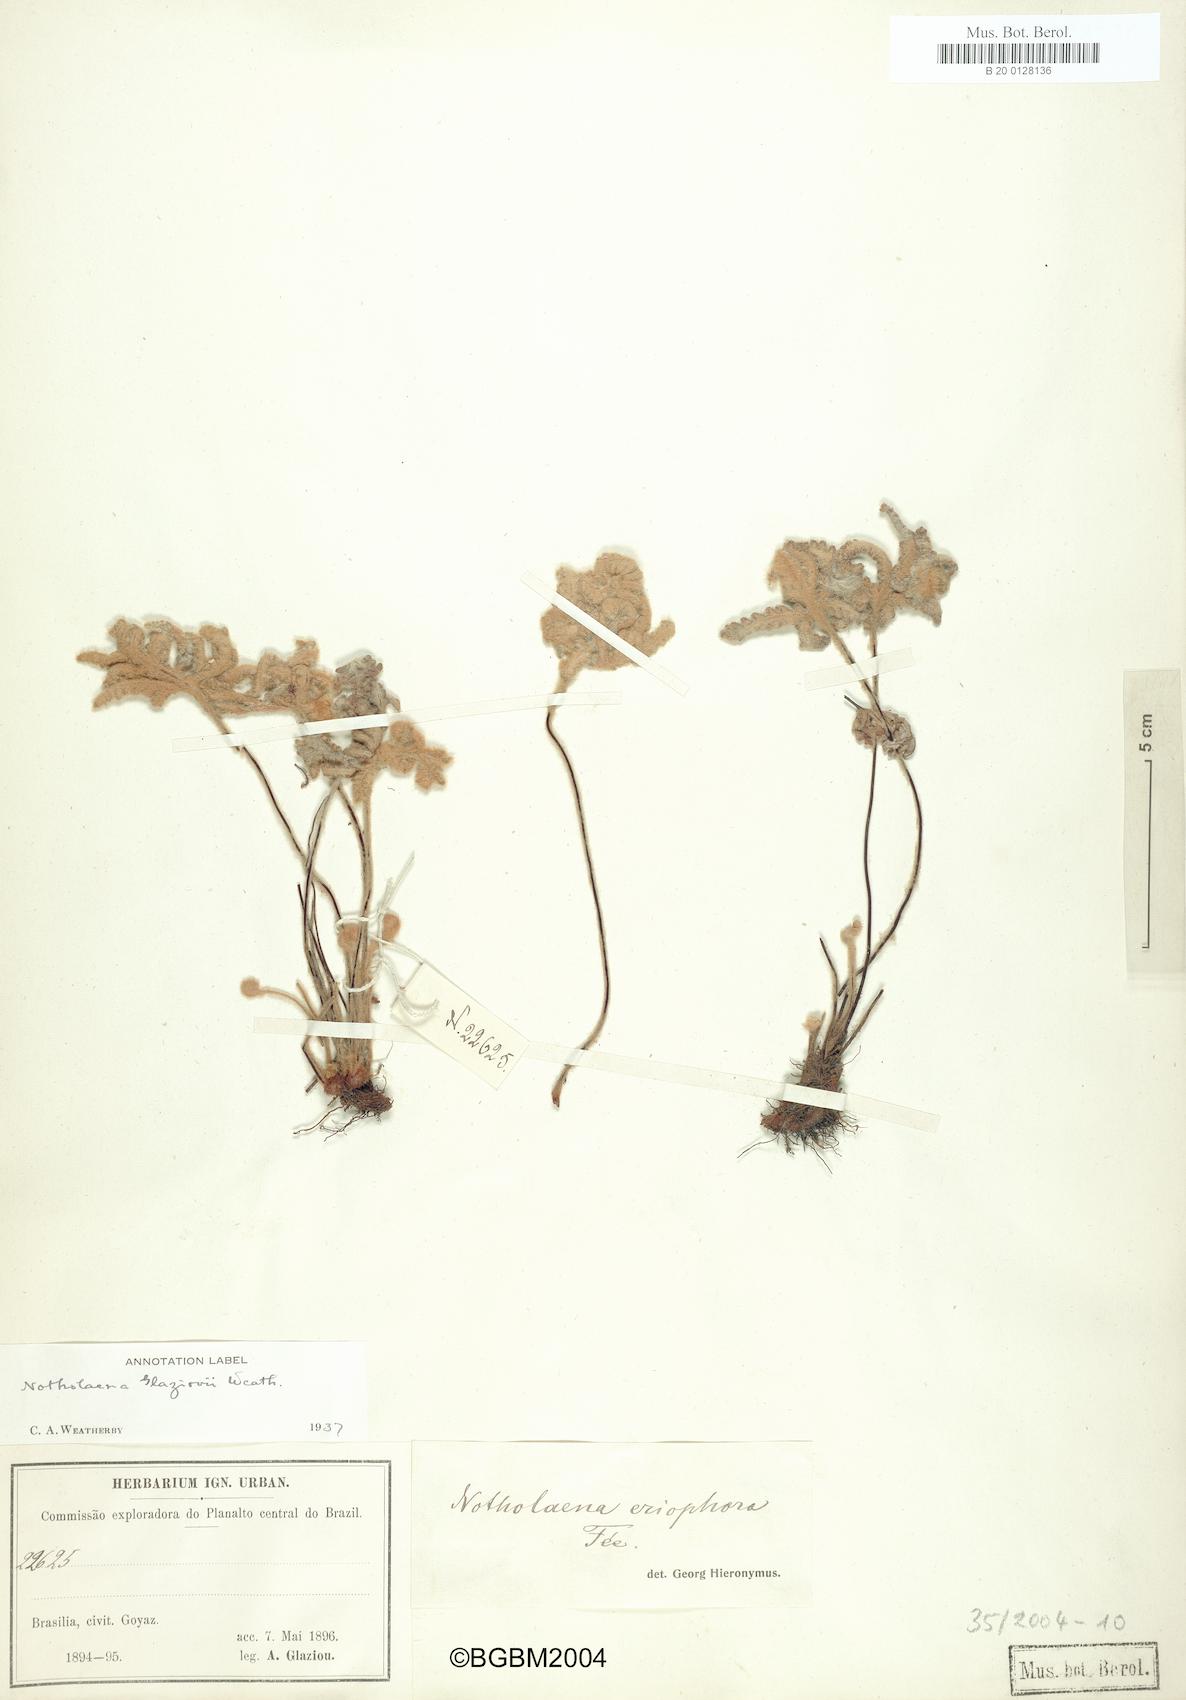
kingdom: Plantae
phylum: Tracheophyta
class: Polypodiopsida
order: Polypodiales
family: Pteridaceae
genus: Mineirella
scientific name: Mineirella eriophora
